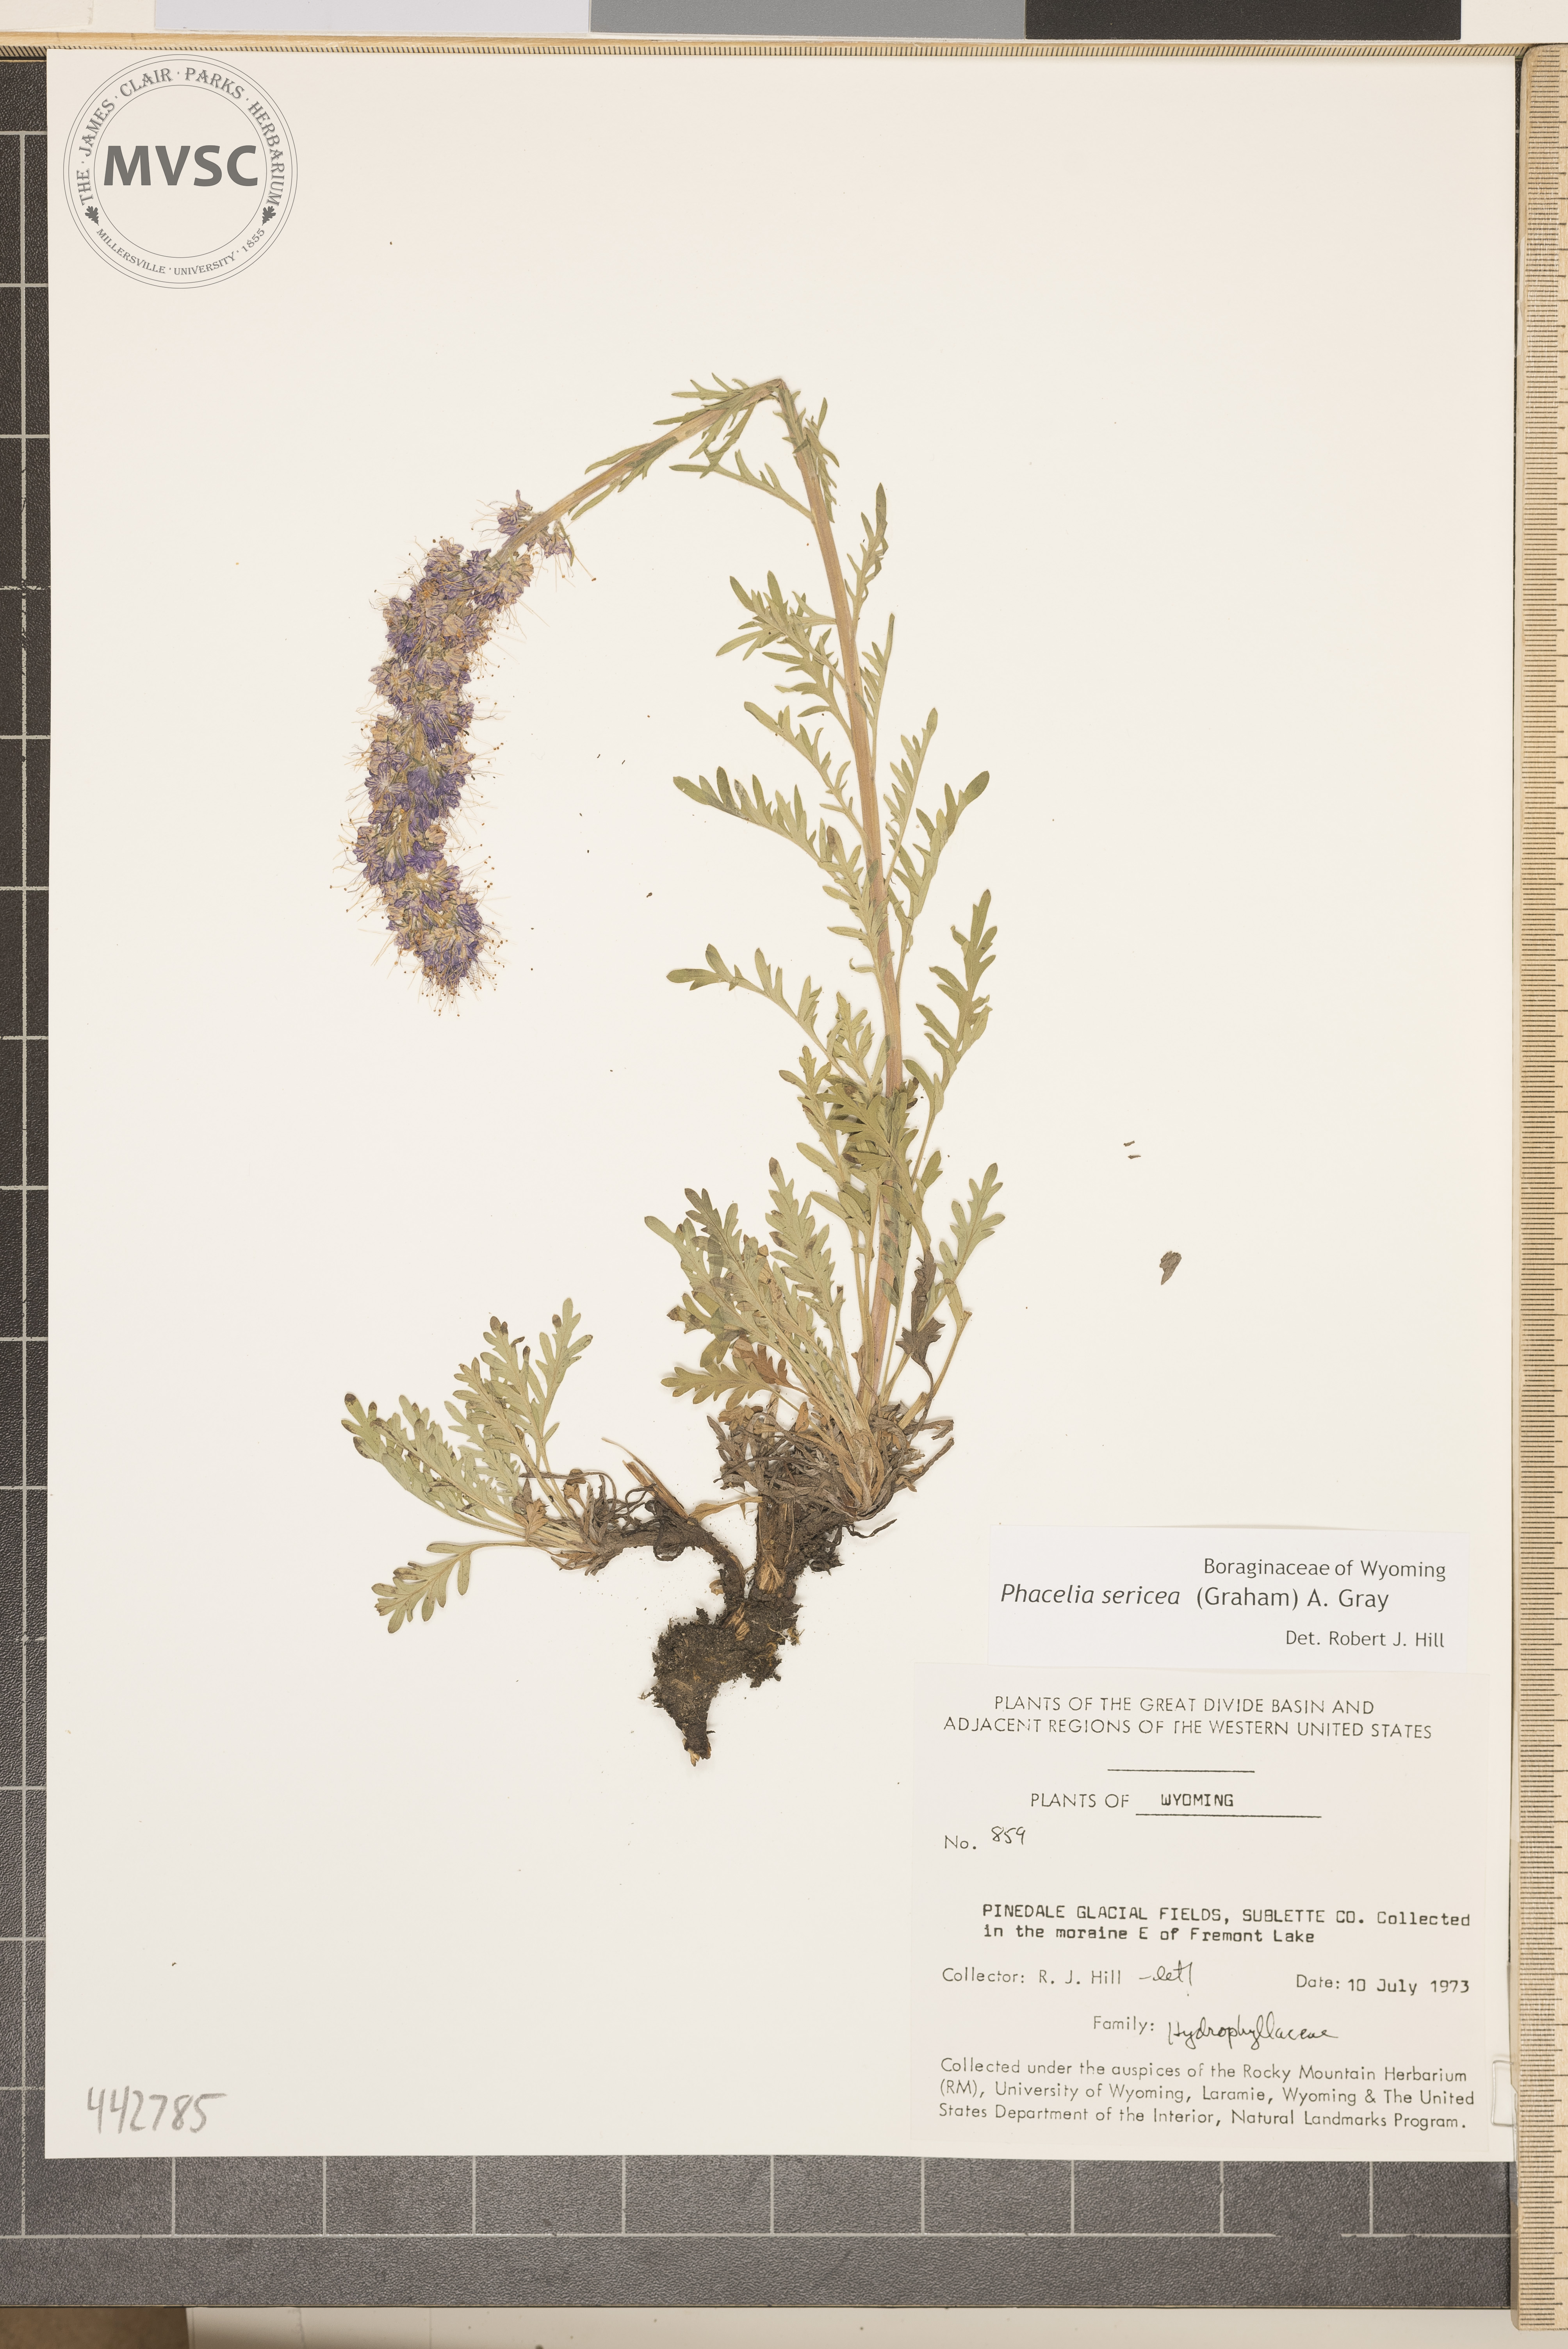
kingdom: Plantae
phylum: Tracheophyta
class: Magnoliopsida
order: Boraginales
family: Hydrophyllaceae
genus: Phacelia
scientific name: Phacelia sericea
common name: Silky phacelia
